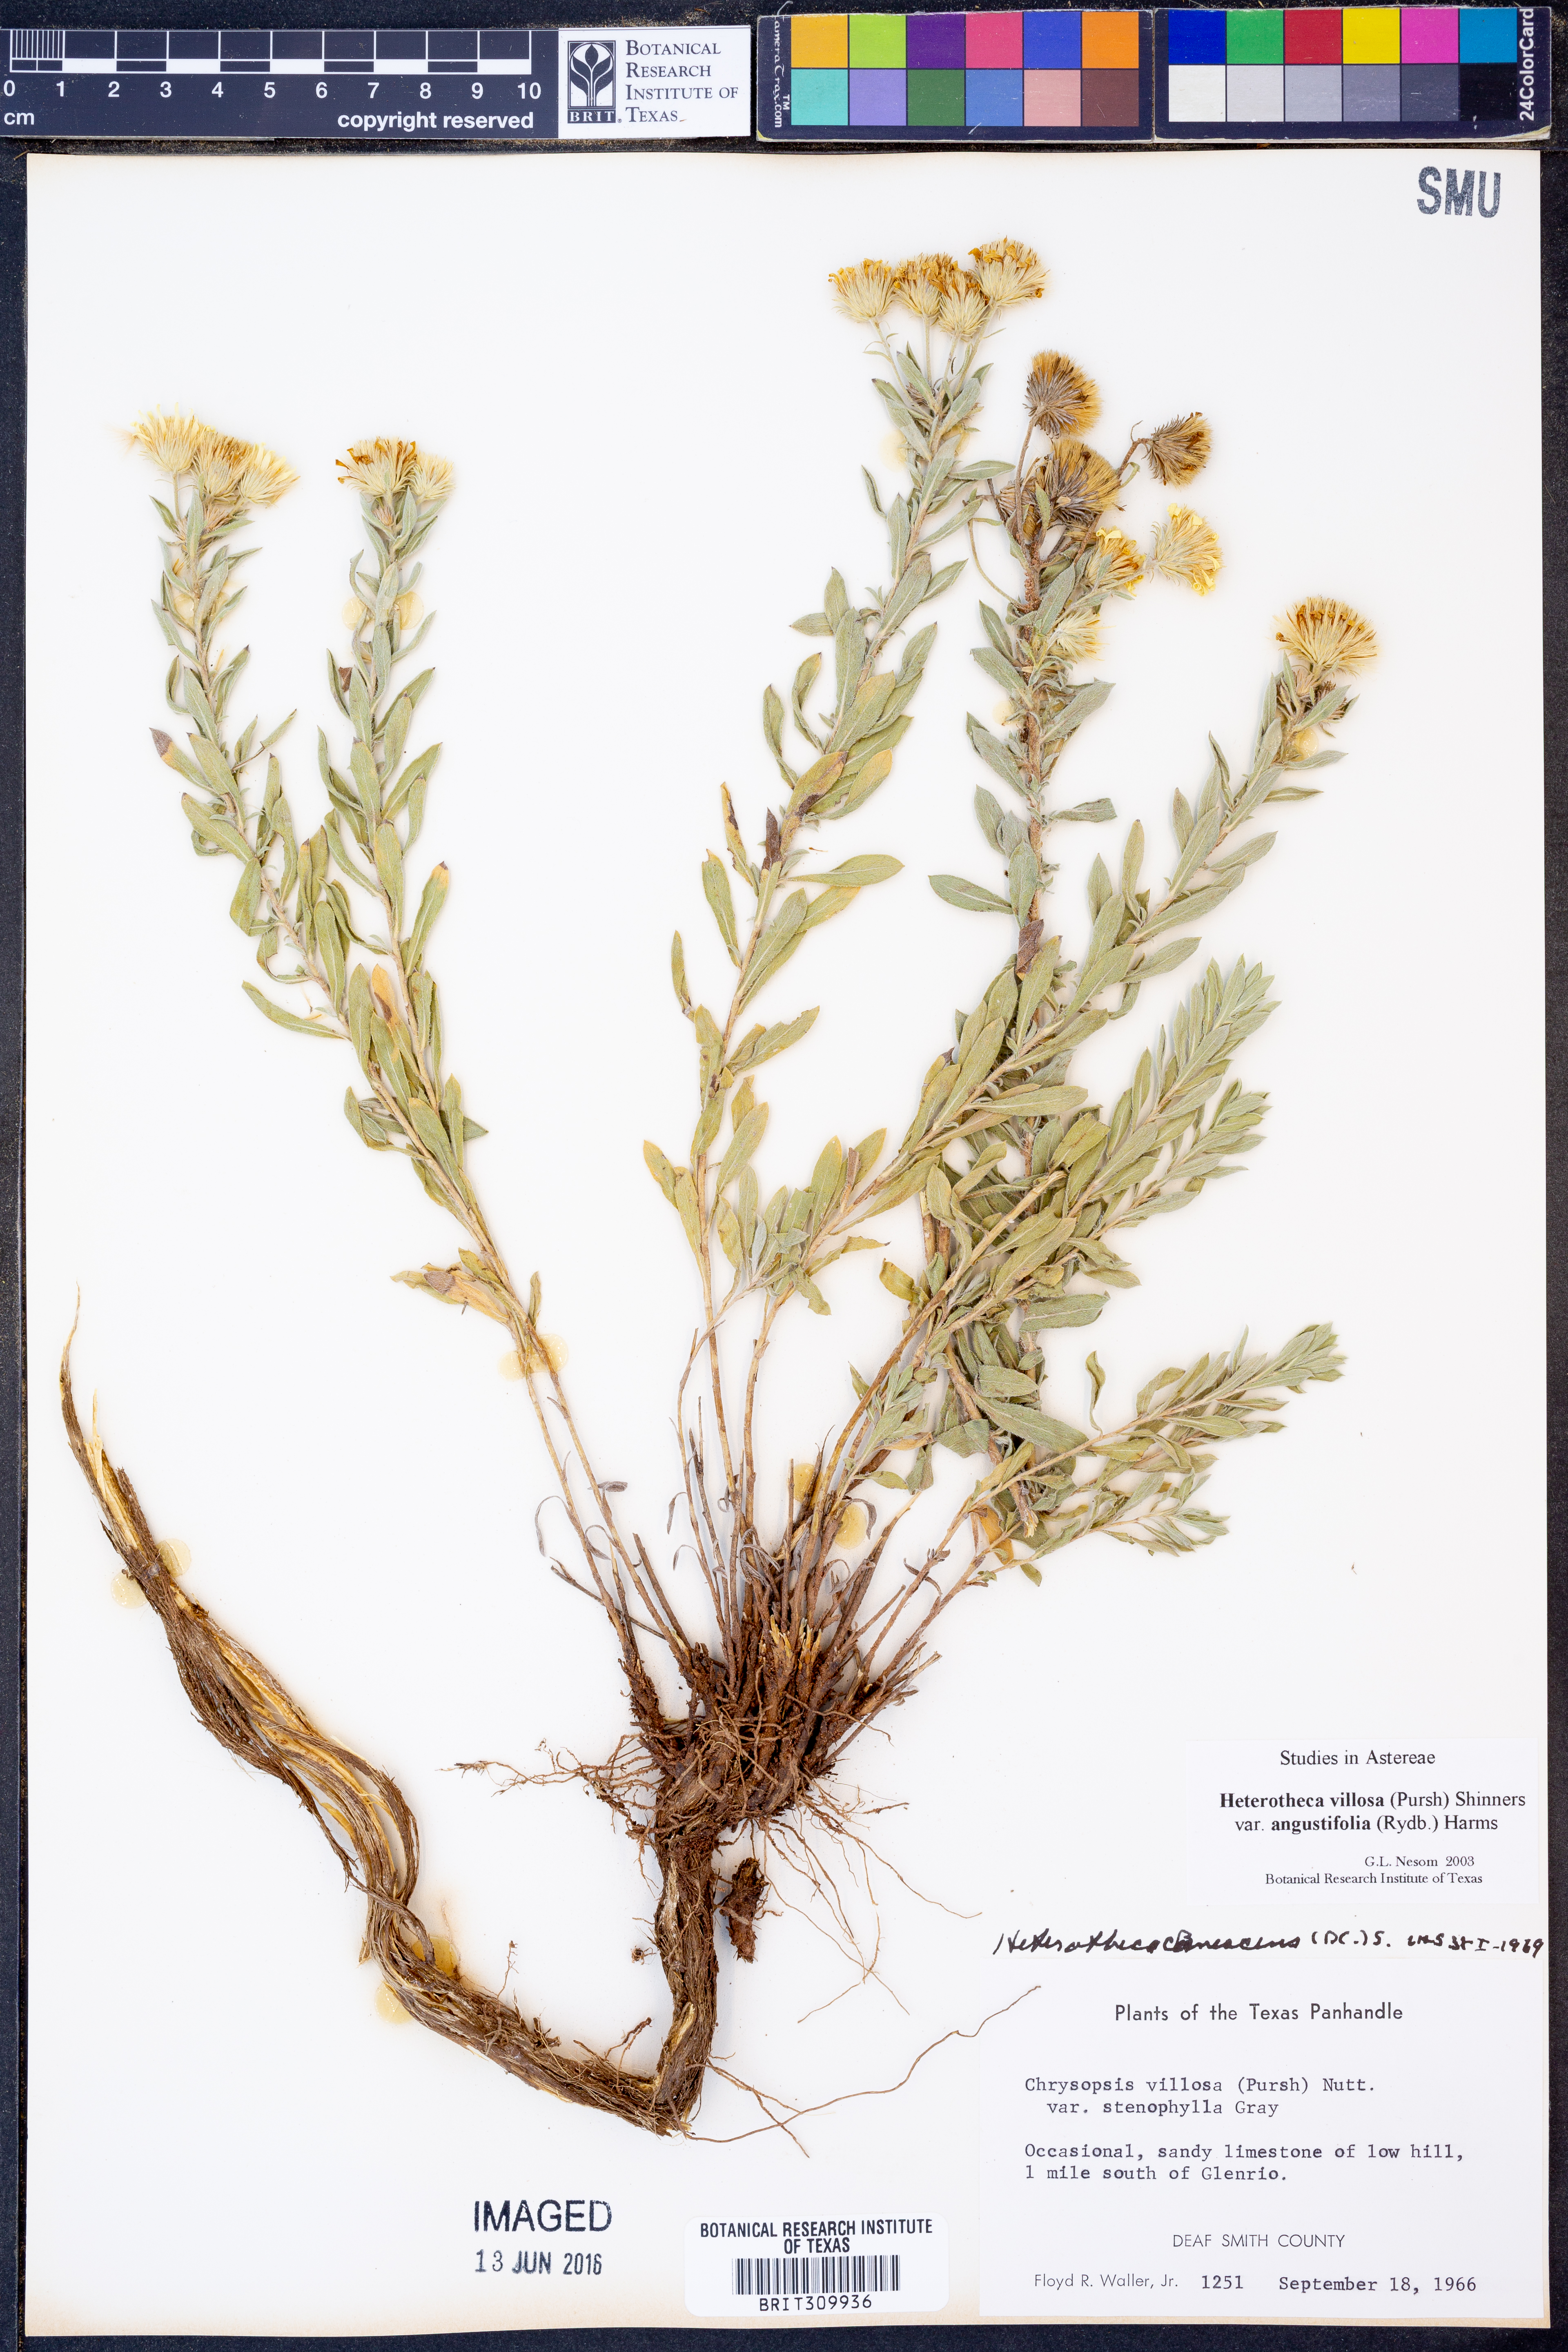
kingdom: Plantae
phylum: Tracheophyta
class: Magnoliopsida
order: Asterales
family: Asteraceae
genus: Heterotheca
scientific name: Heterotheca angustifolia
